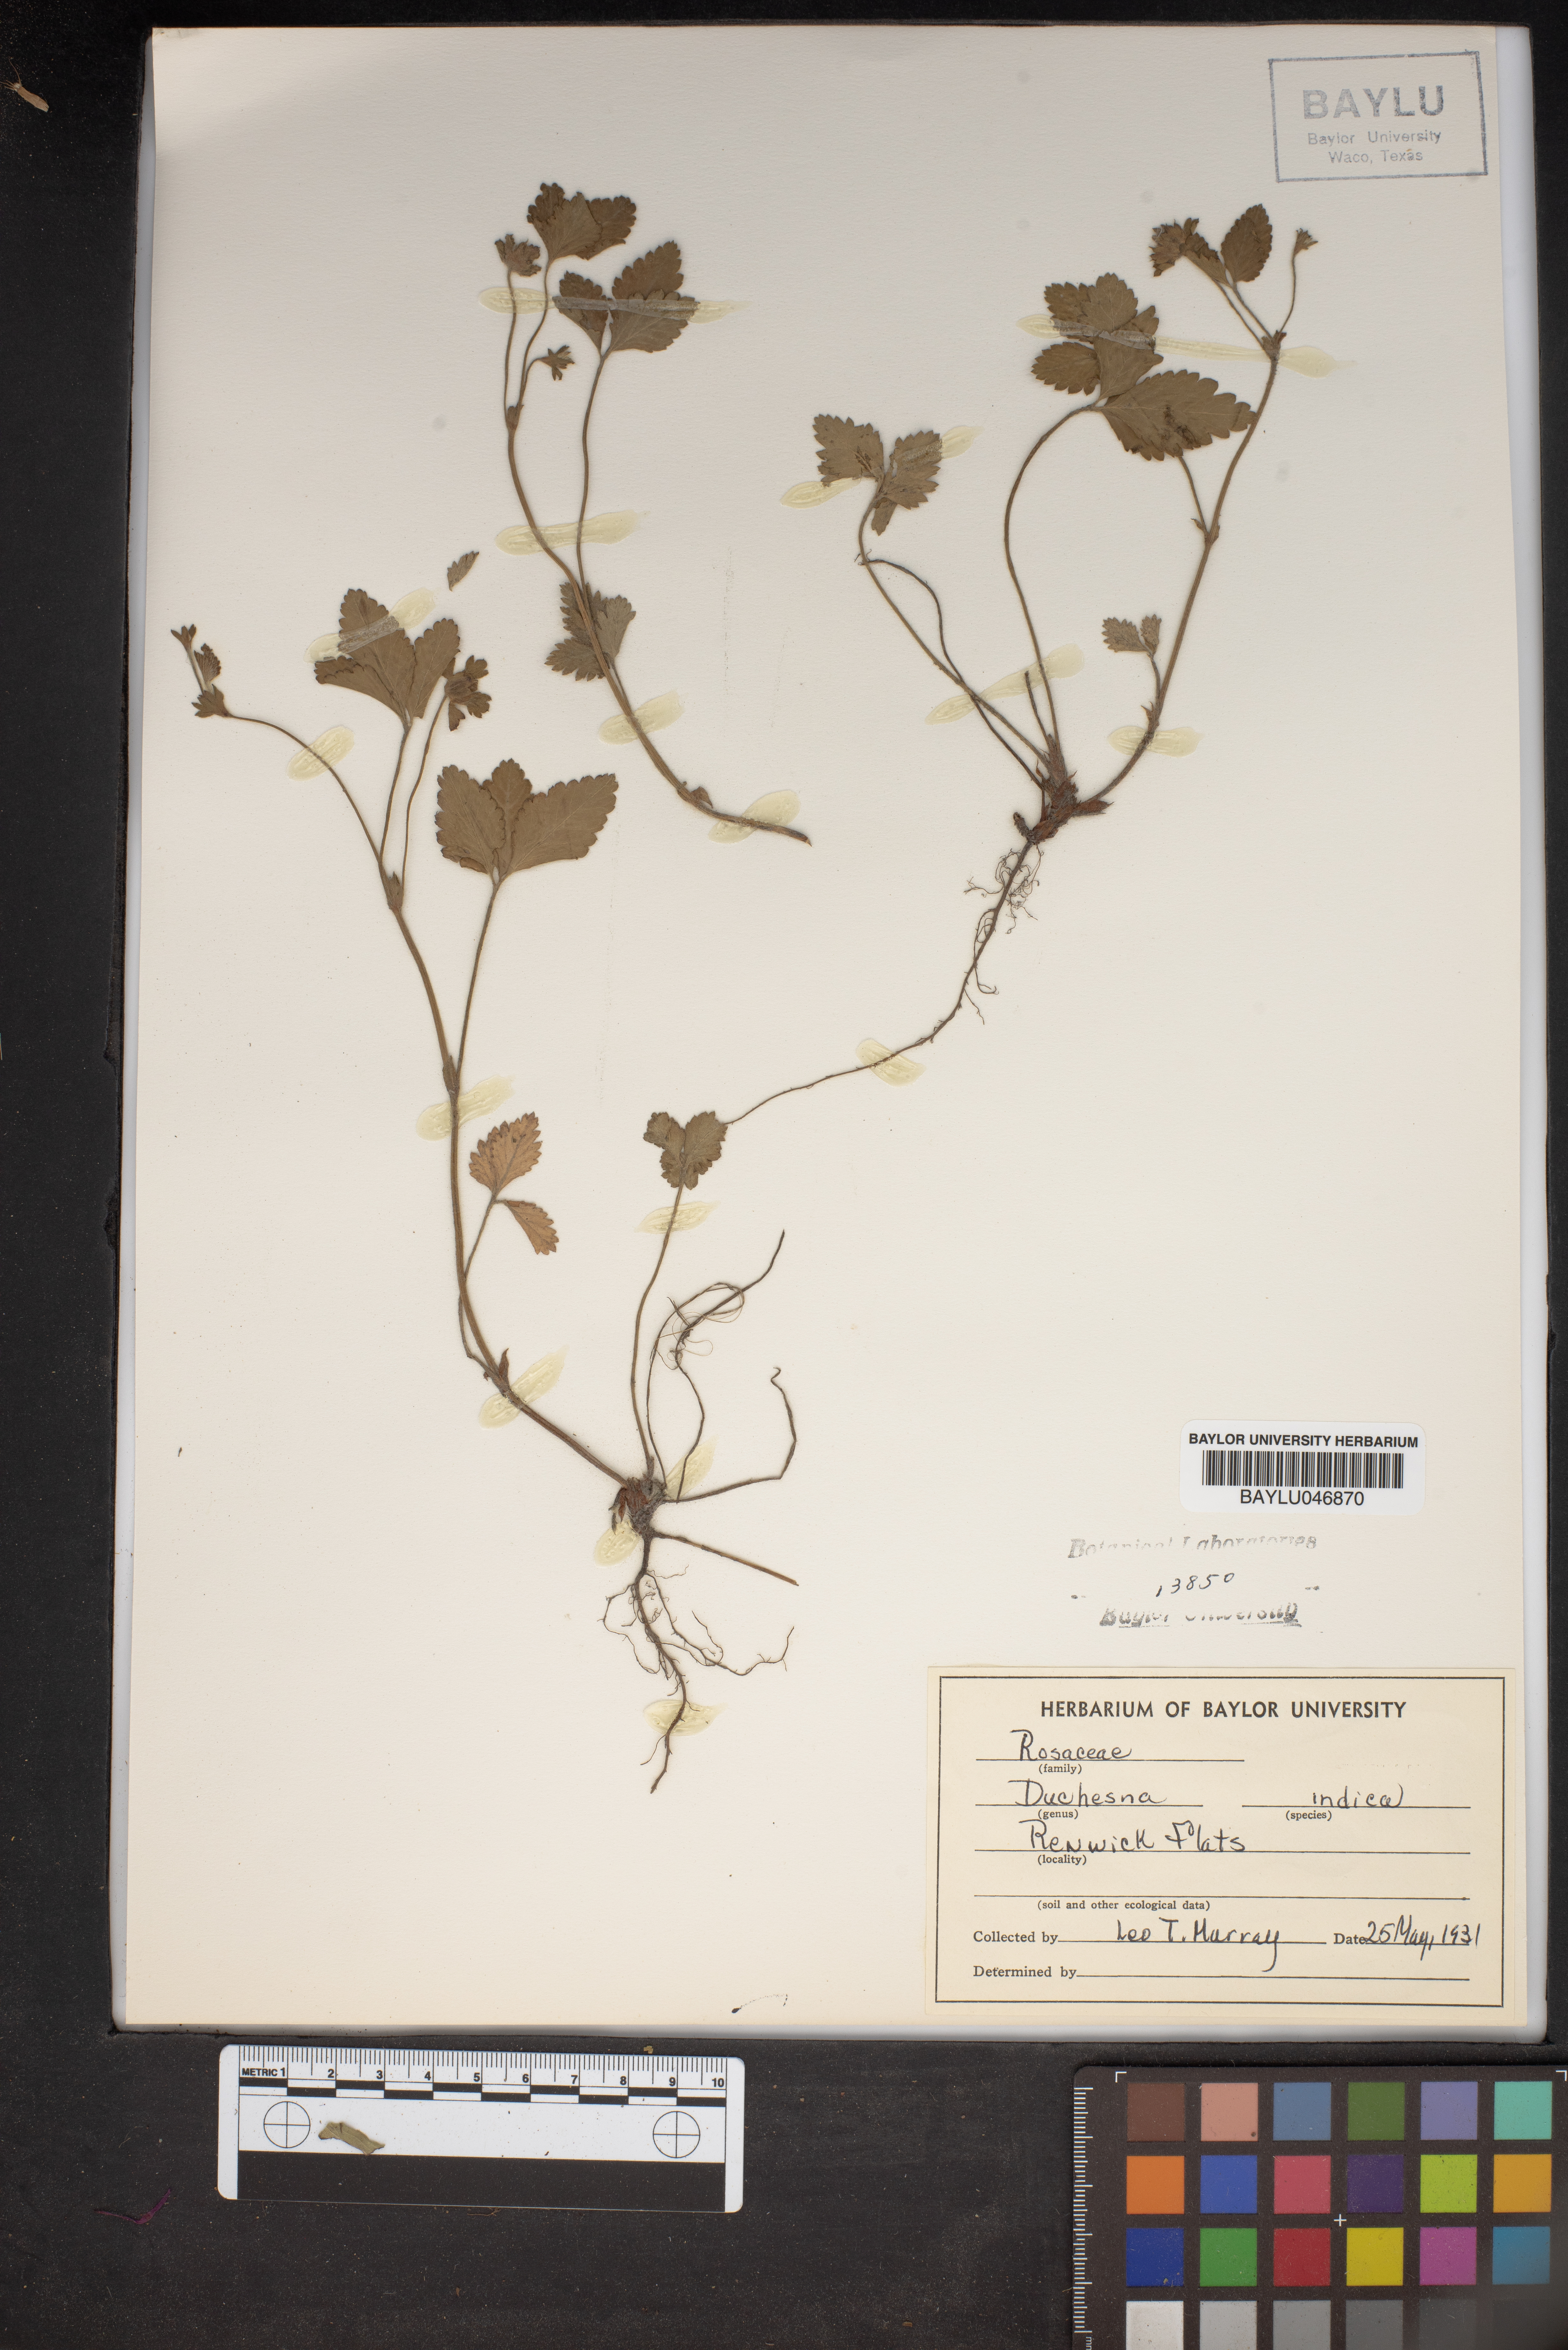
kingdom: Plantae
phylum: Tracheophyta
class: Magnoliopsida
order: Rosales
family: Rosaceae
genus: Potentilla
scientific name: Potentilla indica
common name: Yellow-flowered strawberry
